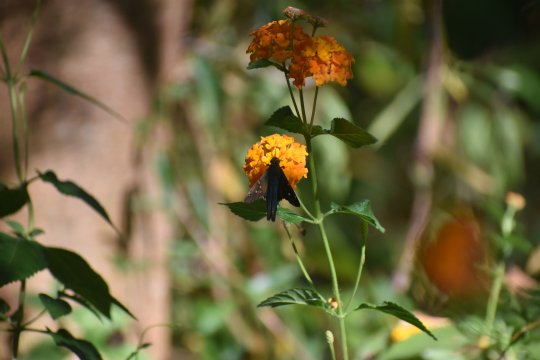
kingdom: Animalia
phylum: Arthropoda
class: Insecta
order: Lepidoptera
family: Hesperiidae
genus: Urbanus
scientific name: Urbanus proteus
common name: Long-tailed Skipper
